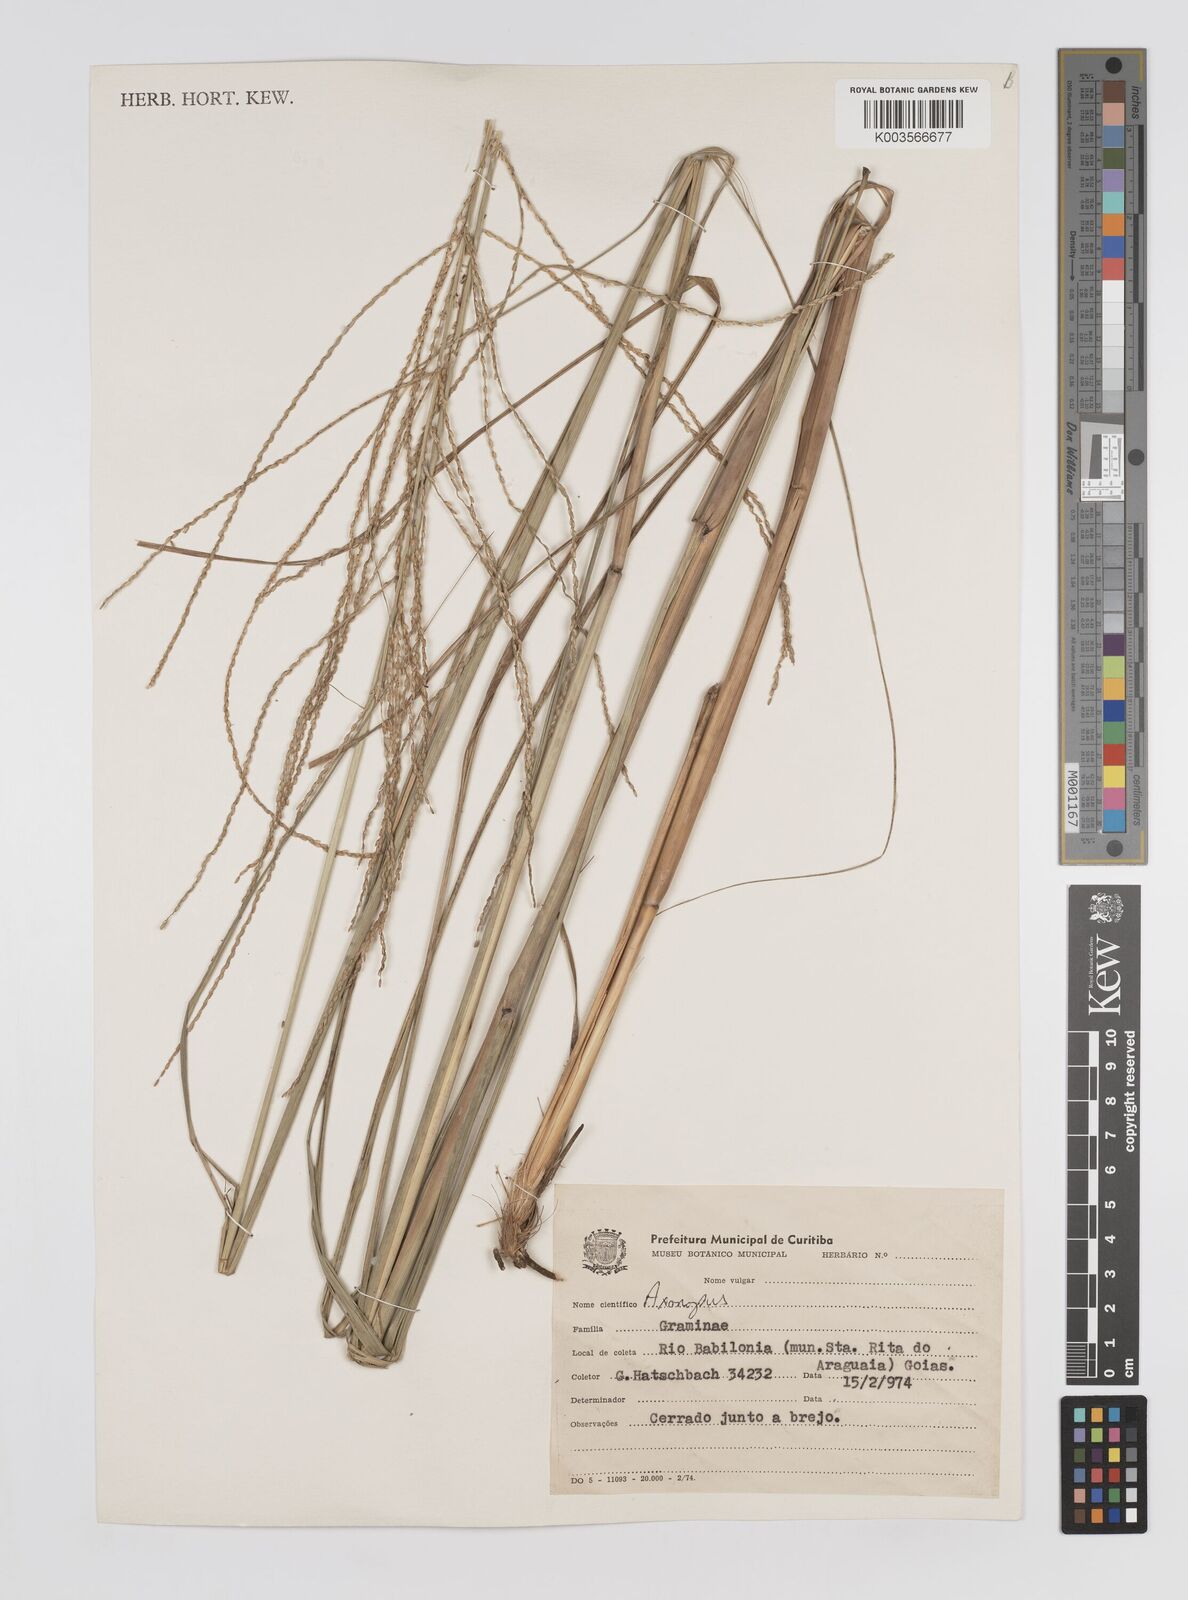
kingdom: Plantae
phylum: Tracheophyta
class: Liliopsida
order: Poales
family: Poaceae
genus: Axonopus
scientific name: Axonopus siccus
